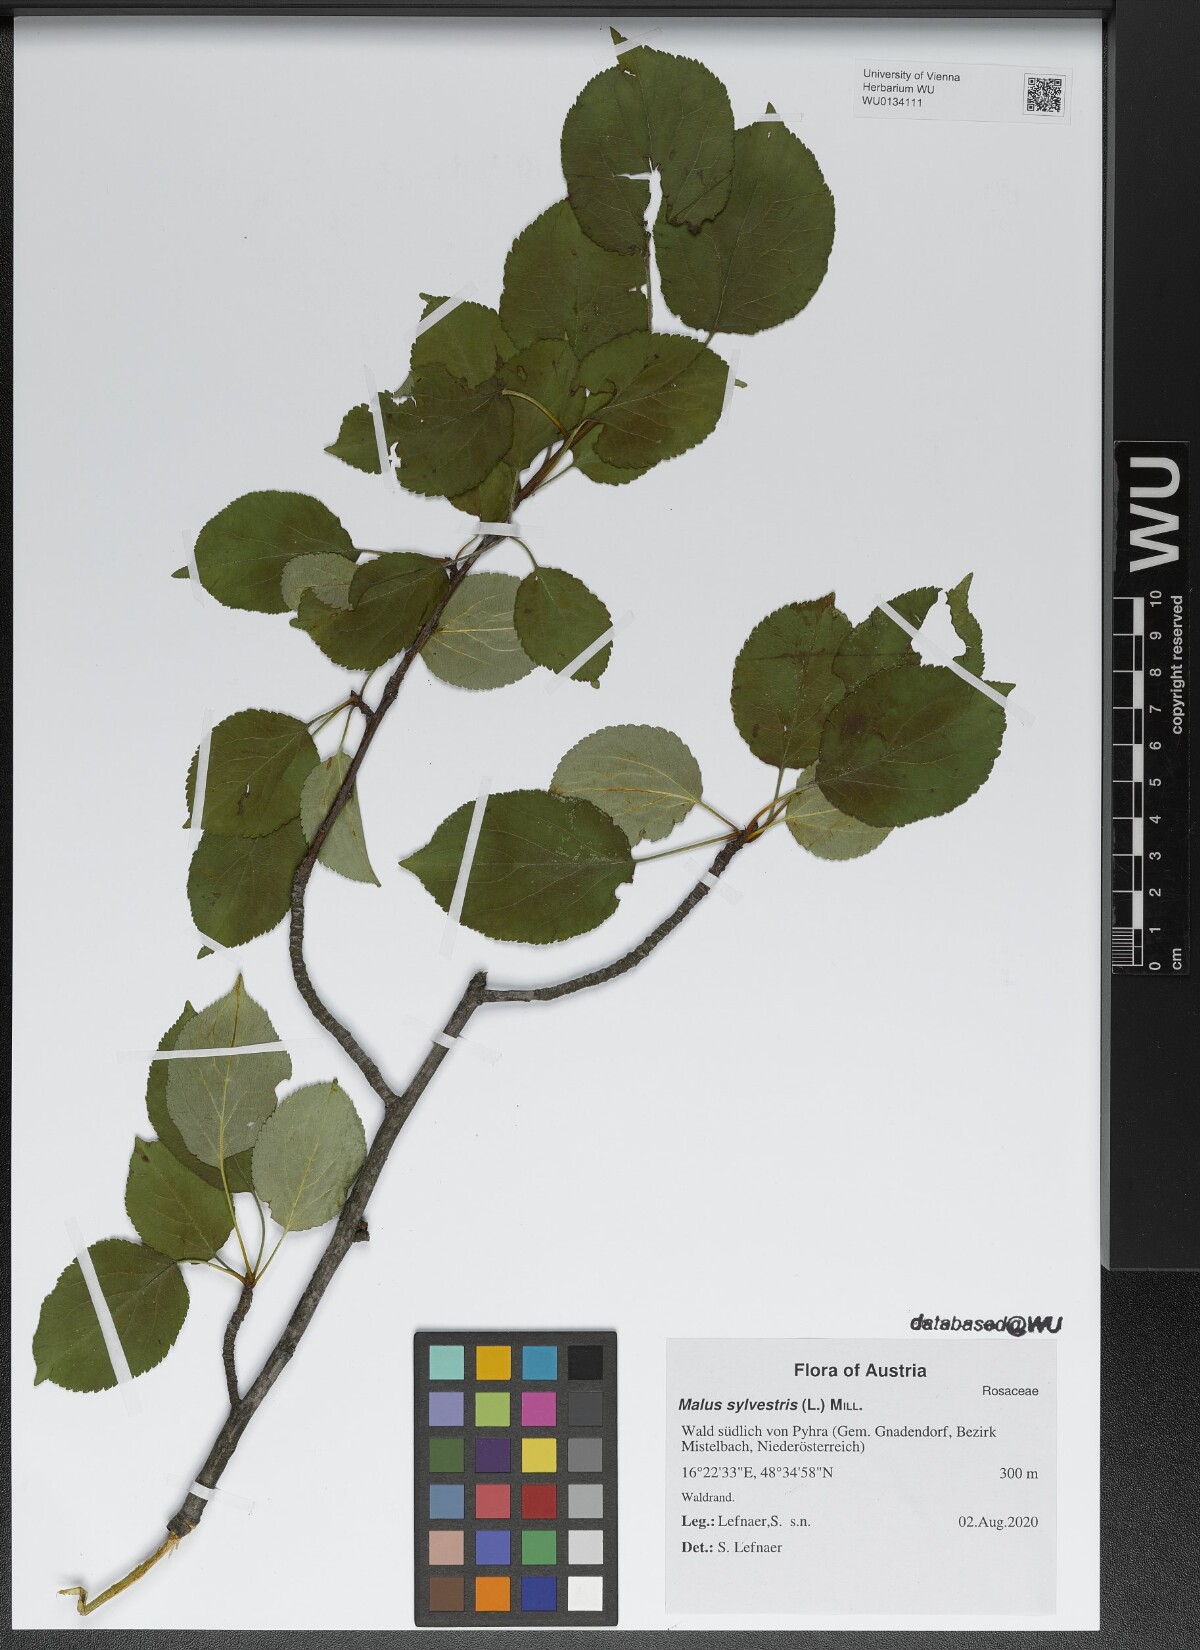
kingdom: Plantae
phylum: Tracheophyta
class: Magnoliopsida
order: Rosales
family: Rosaceae
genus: Malus
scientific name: Malus sylvestris
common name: Crab apple
